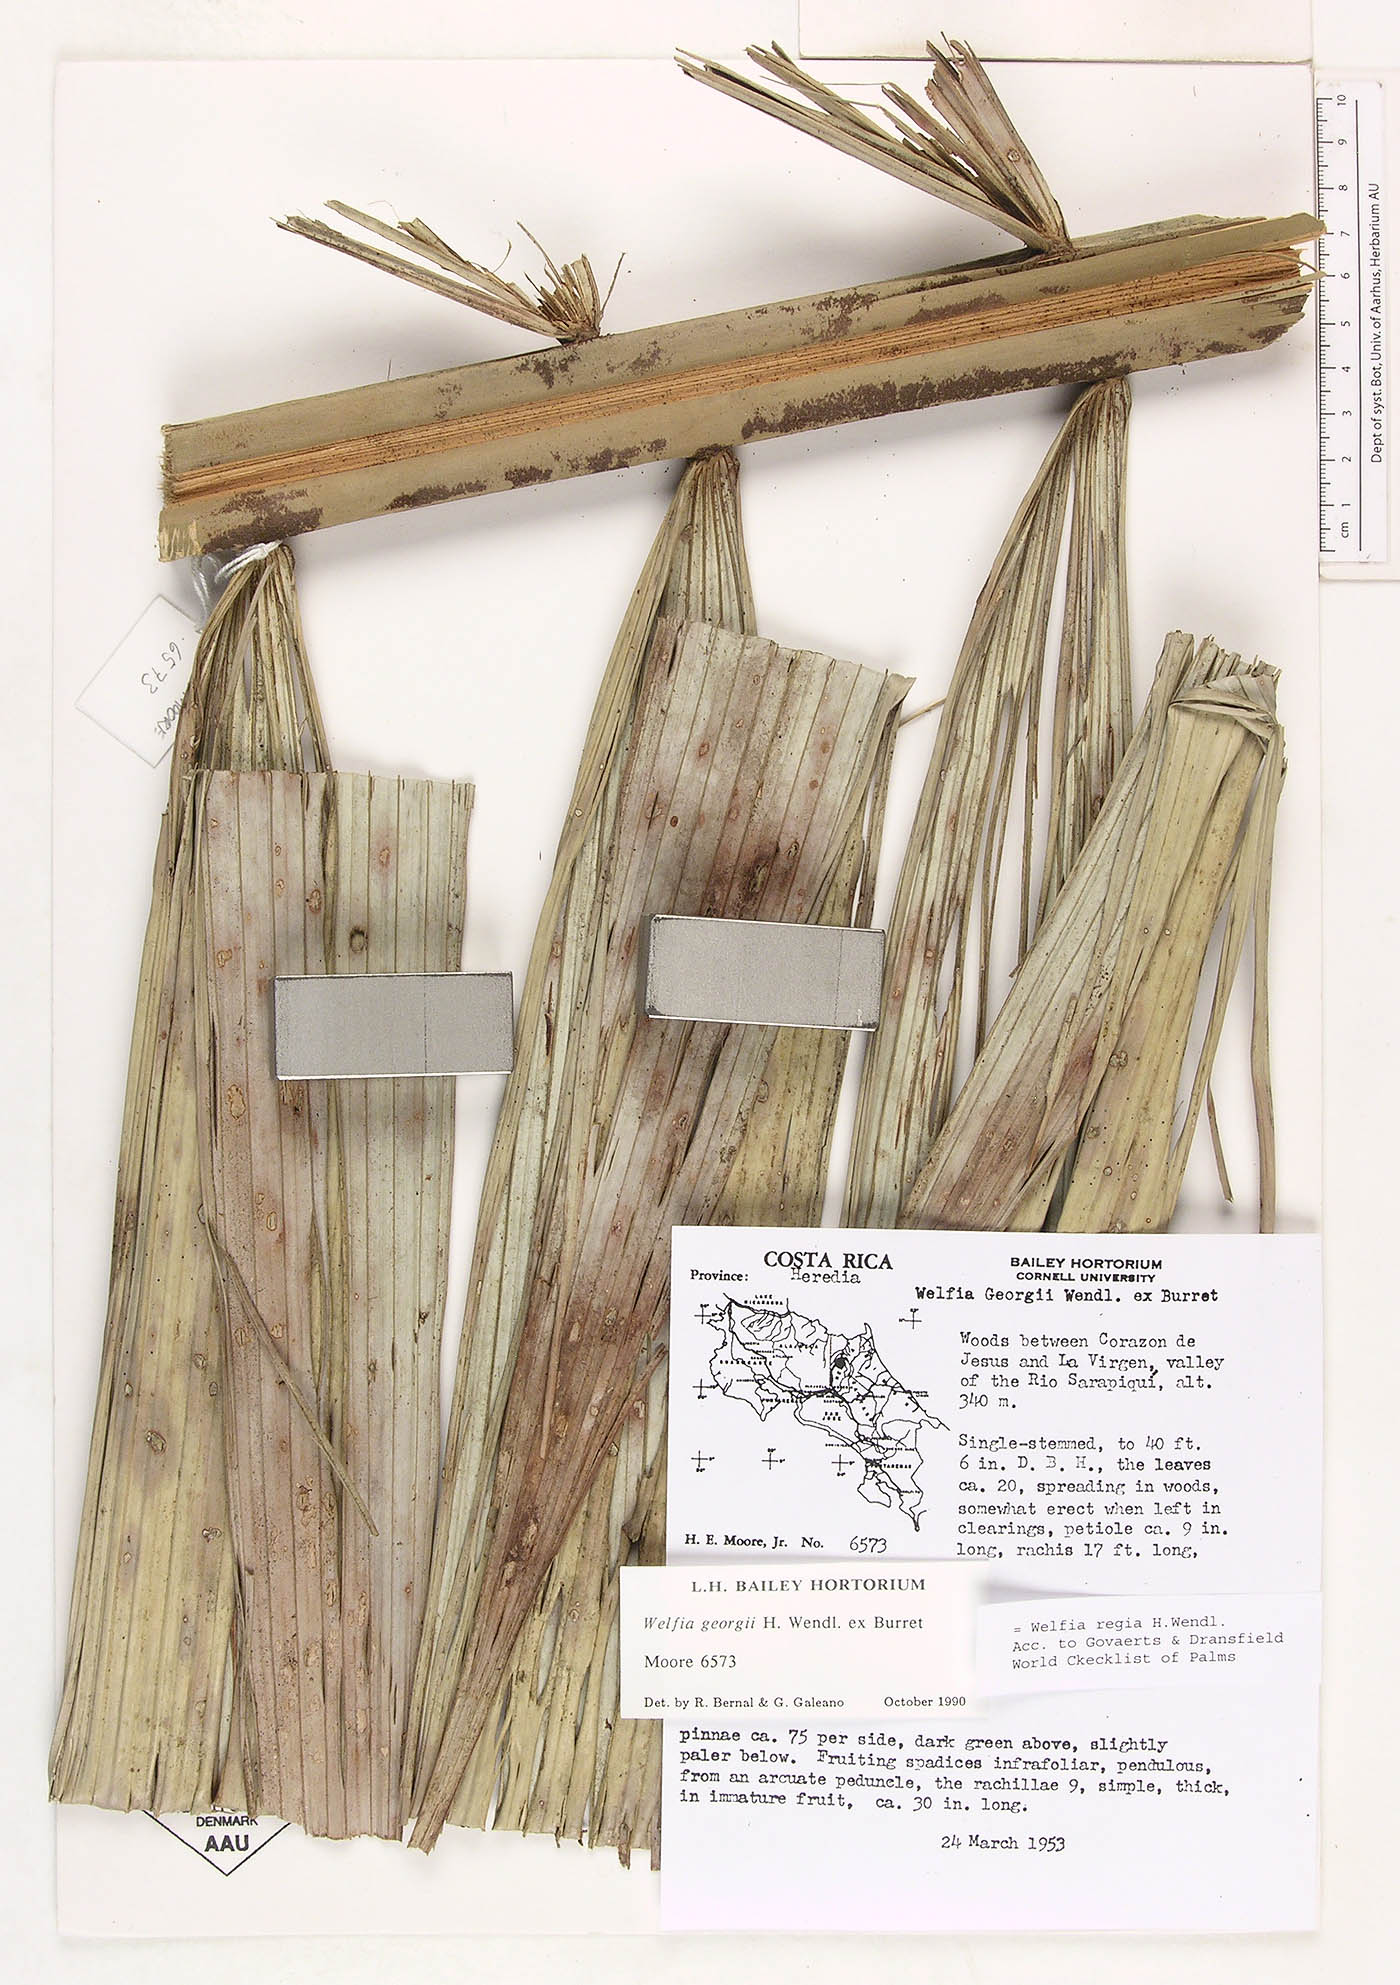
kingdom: Plantae
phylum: Tracheophyta
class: Liliopsida
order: Arecales
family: Arecaceae
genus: Welfia
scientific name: Welfia regia
